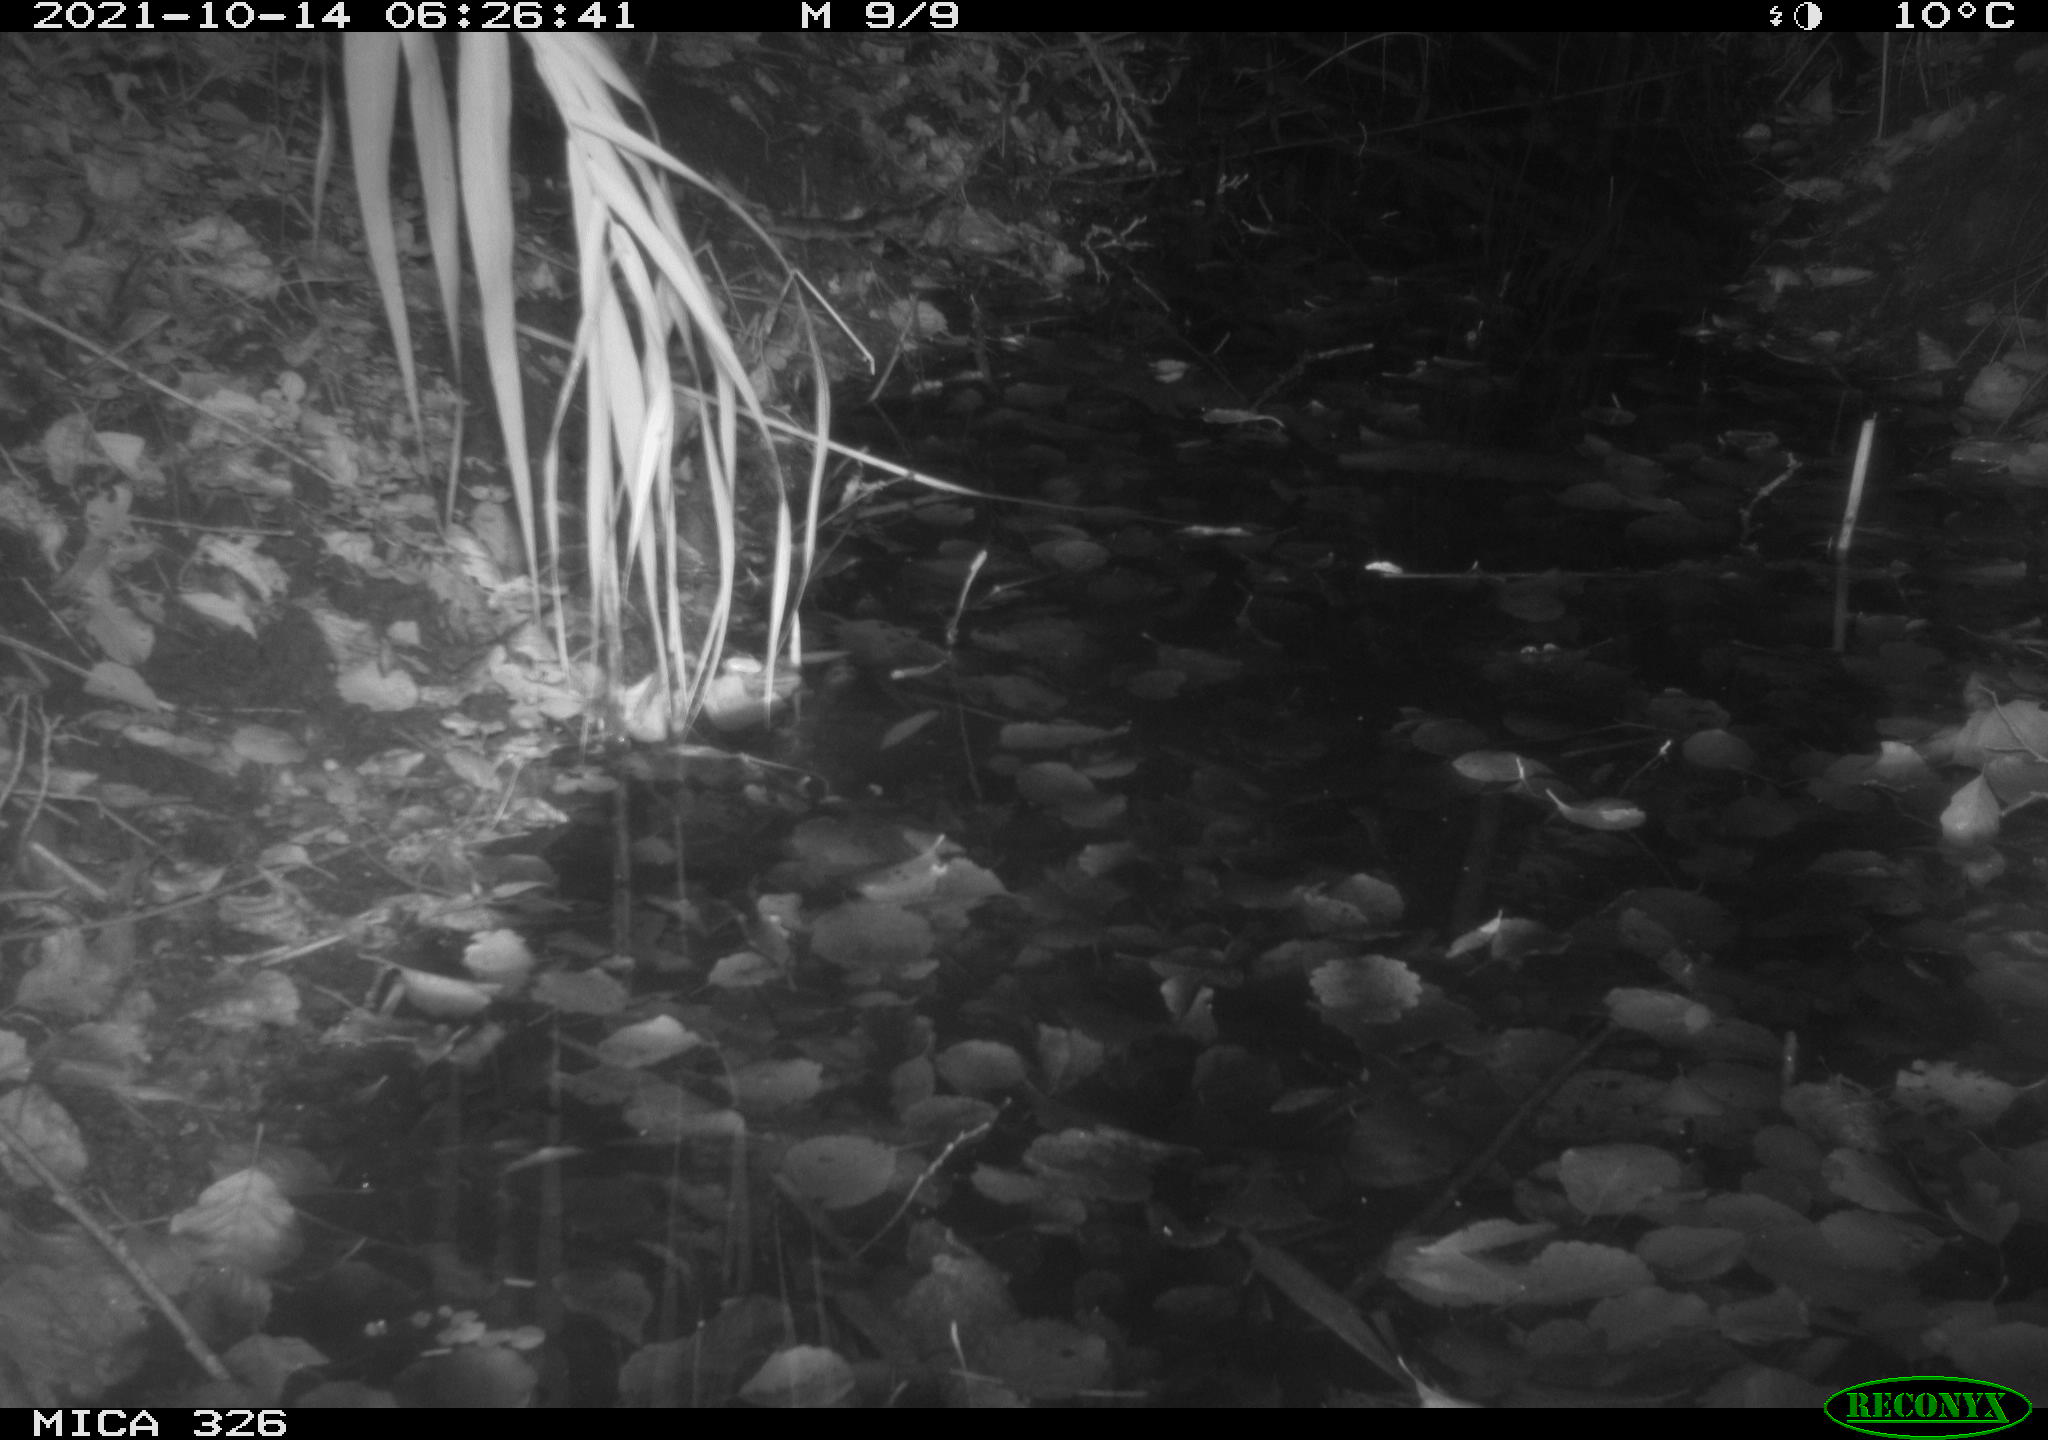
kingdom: Animalia
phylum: Chordata
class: Mammalia
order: Rodentia
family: Muridae
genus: Rattus
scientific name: Rattus norvegicus
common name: Brown rat
